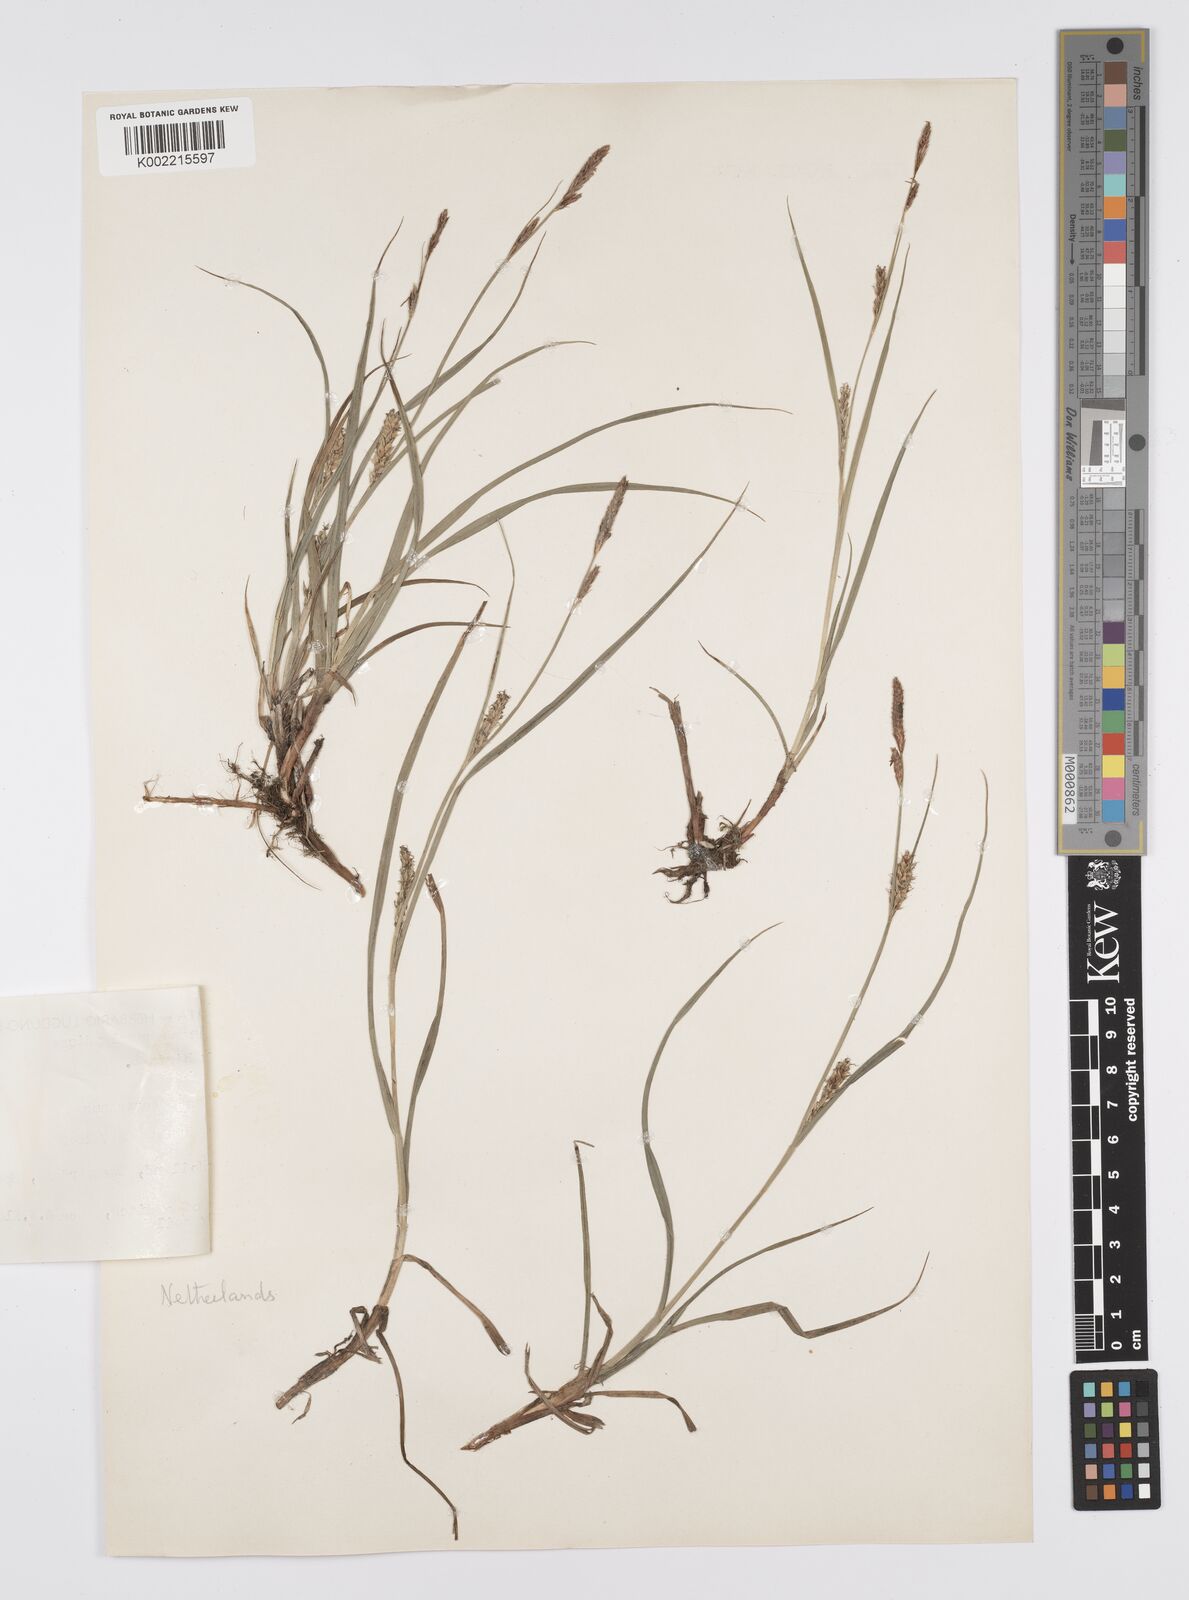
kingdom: Plantae
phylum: Tracheophyta
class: Liliopsida
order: Poales
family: Cyperaceae
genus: Carex
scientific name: Carex hirta
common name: Hairy sedge
